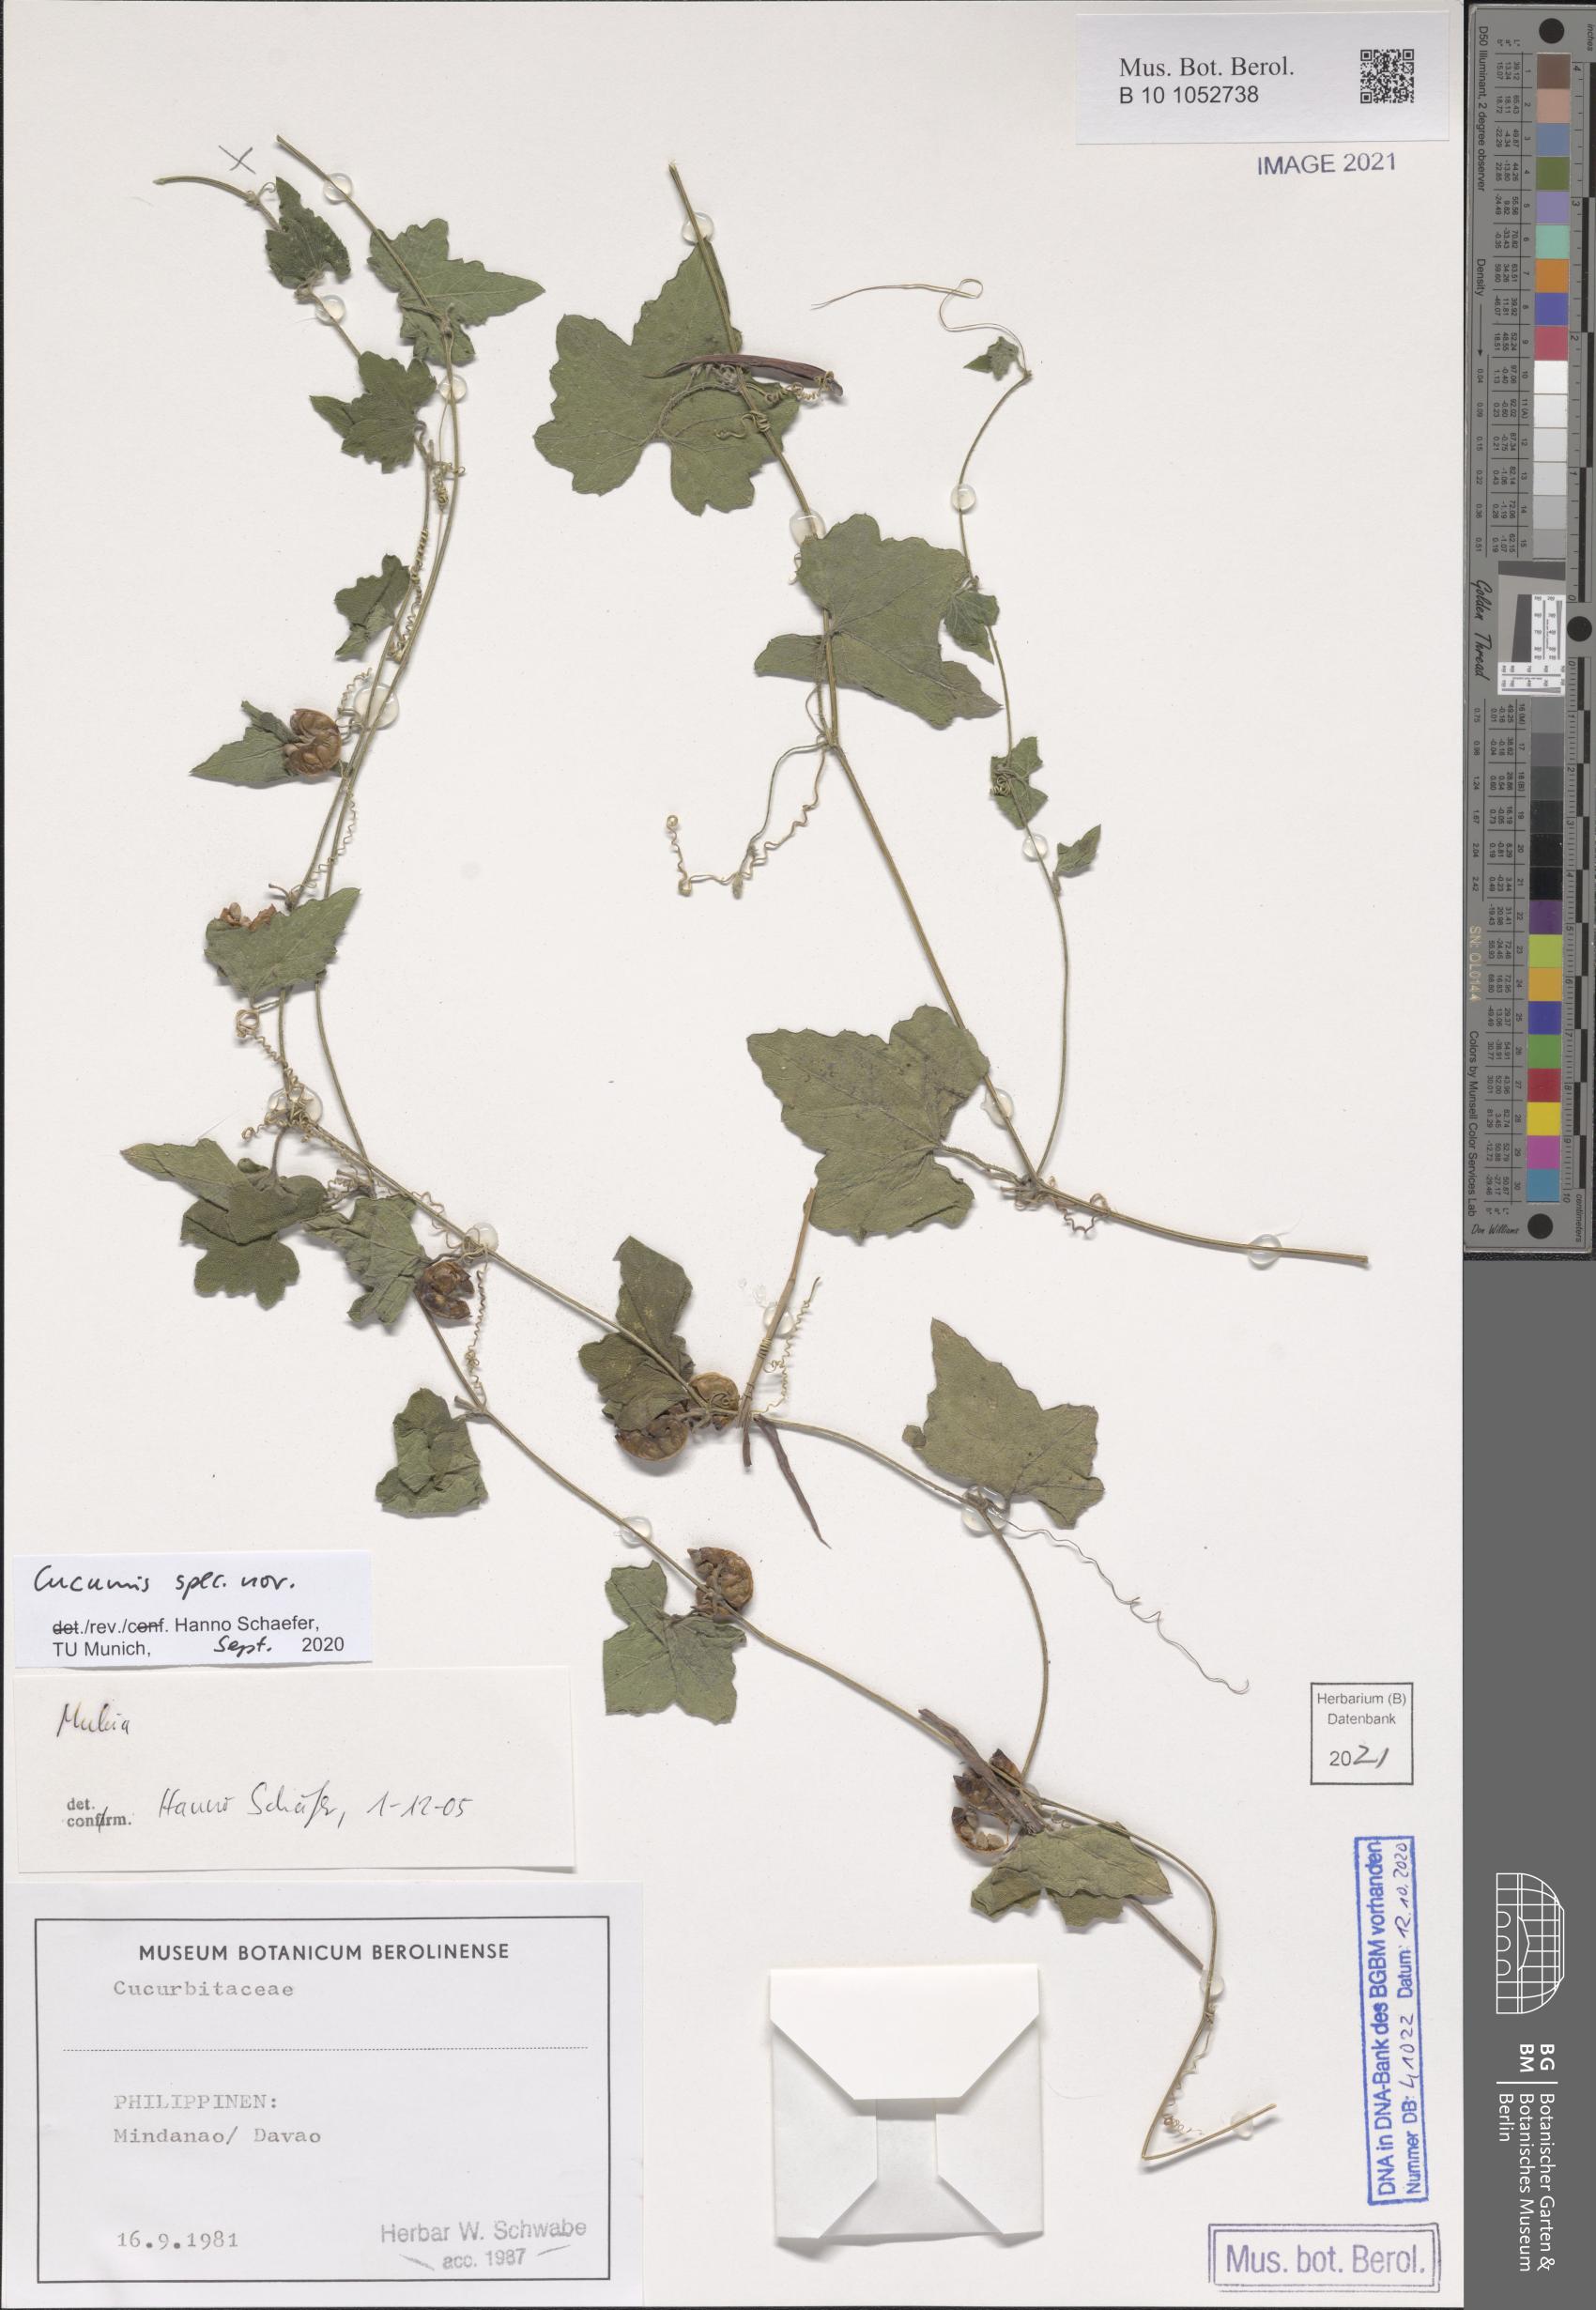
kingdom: Plantae
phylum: Tracheophyta
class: Magnoliopsida
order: Cucurbitales
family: Cucurbitaceae
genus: Cucumis
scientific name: Cucumis
